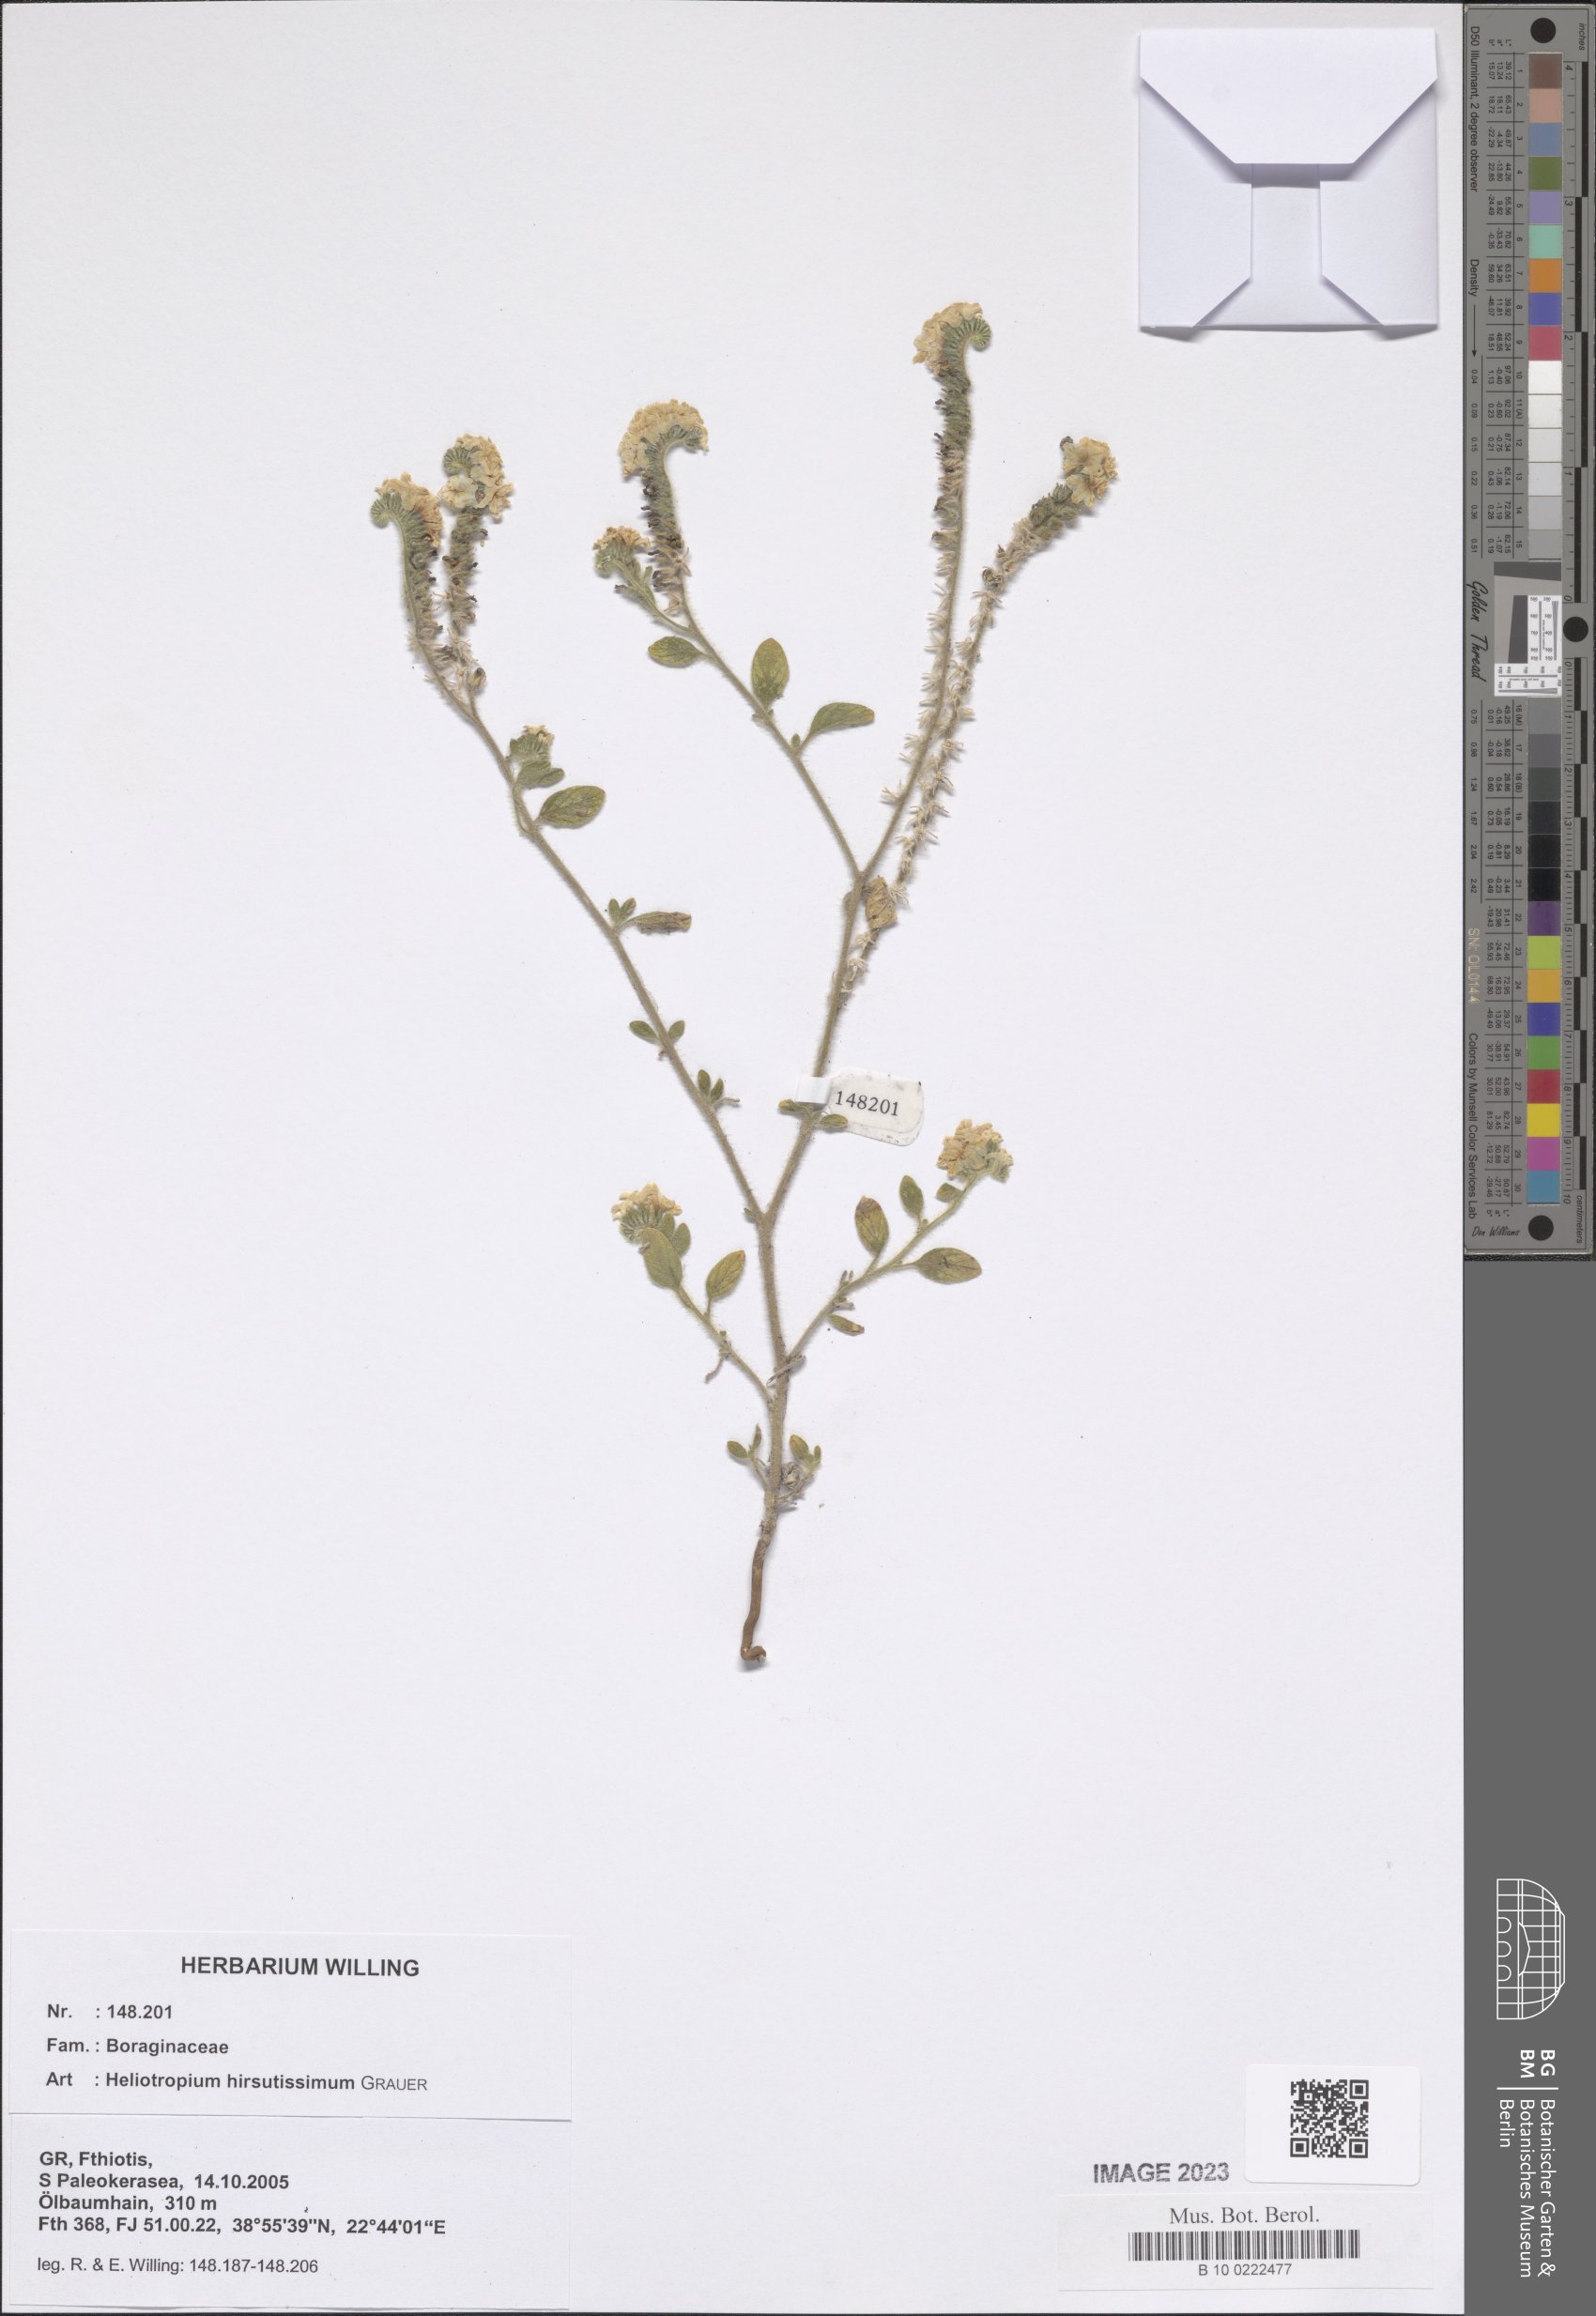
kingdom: Plantae
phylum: Tracheophyta
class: Magnoliopsida
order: Boraginales
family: Heliotropiaceae
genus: Heliotropium
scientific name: Heliotropium hirsutissimum
